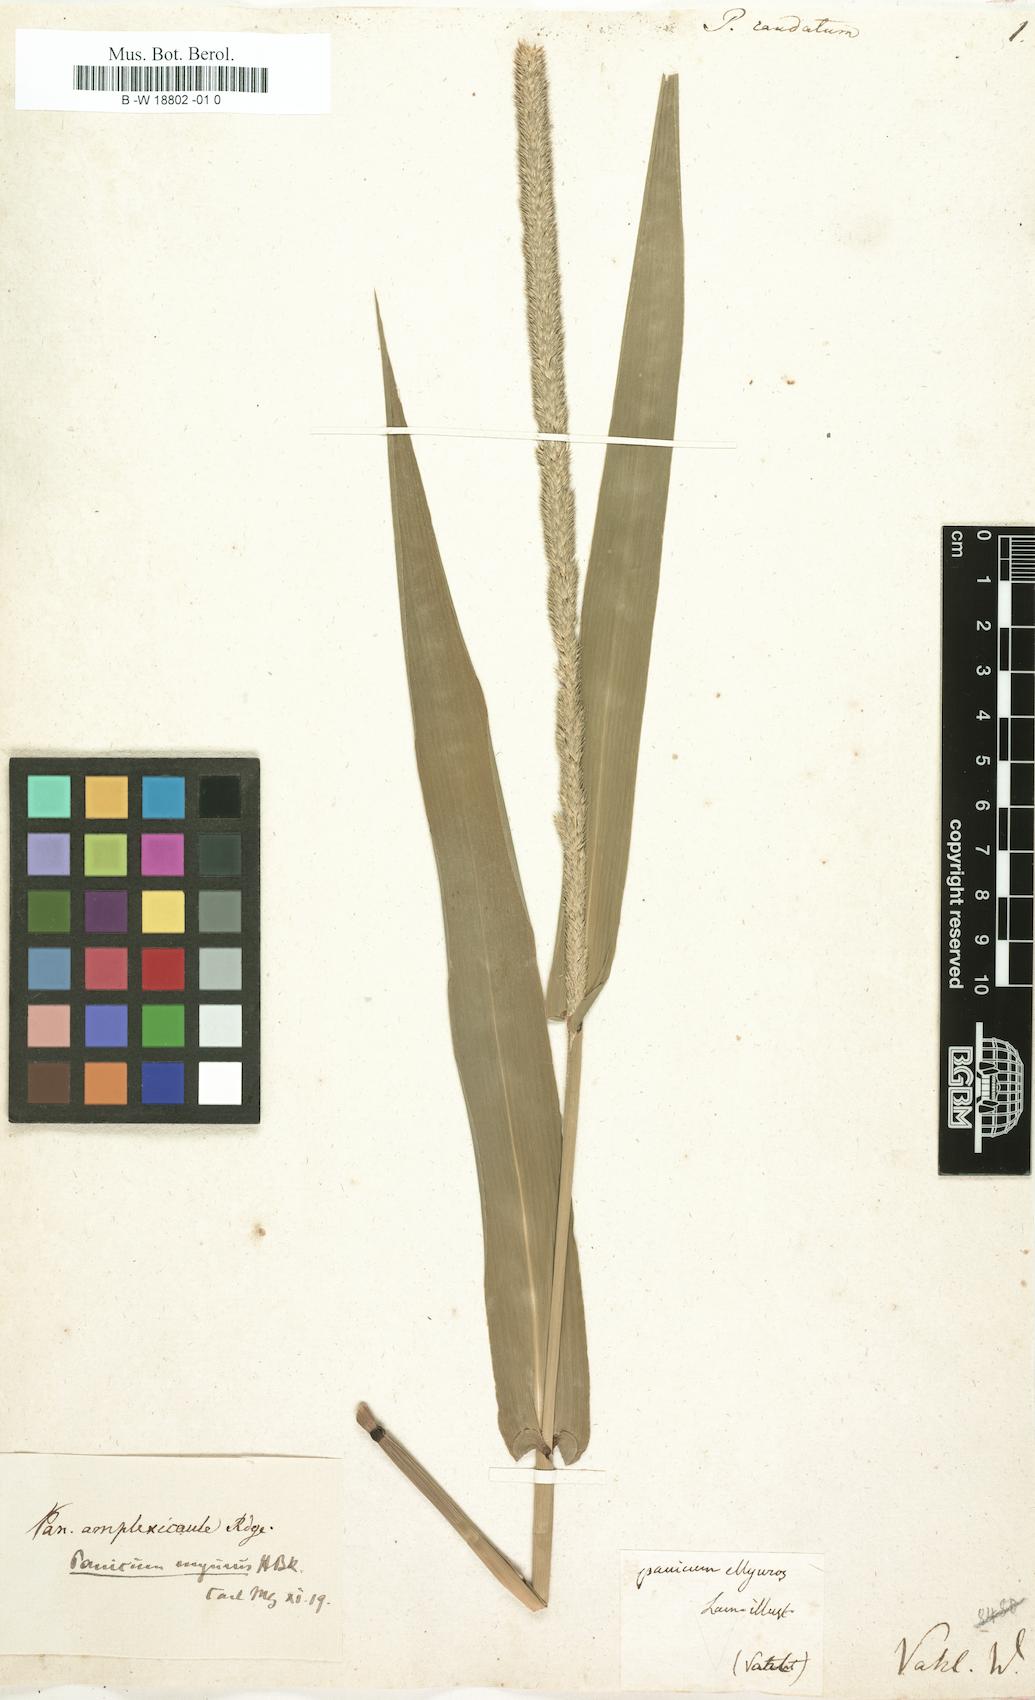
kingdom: Plantae
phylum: Tracheophyta
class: Liliopsida
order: Poales
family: Poaceae
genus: Hymenachne
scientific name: Hymenachne amplexicaulis
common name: Olive hymenachne
